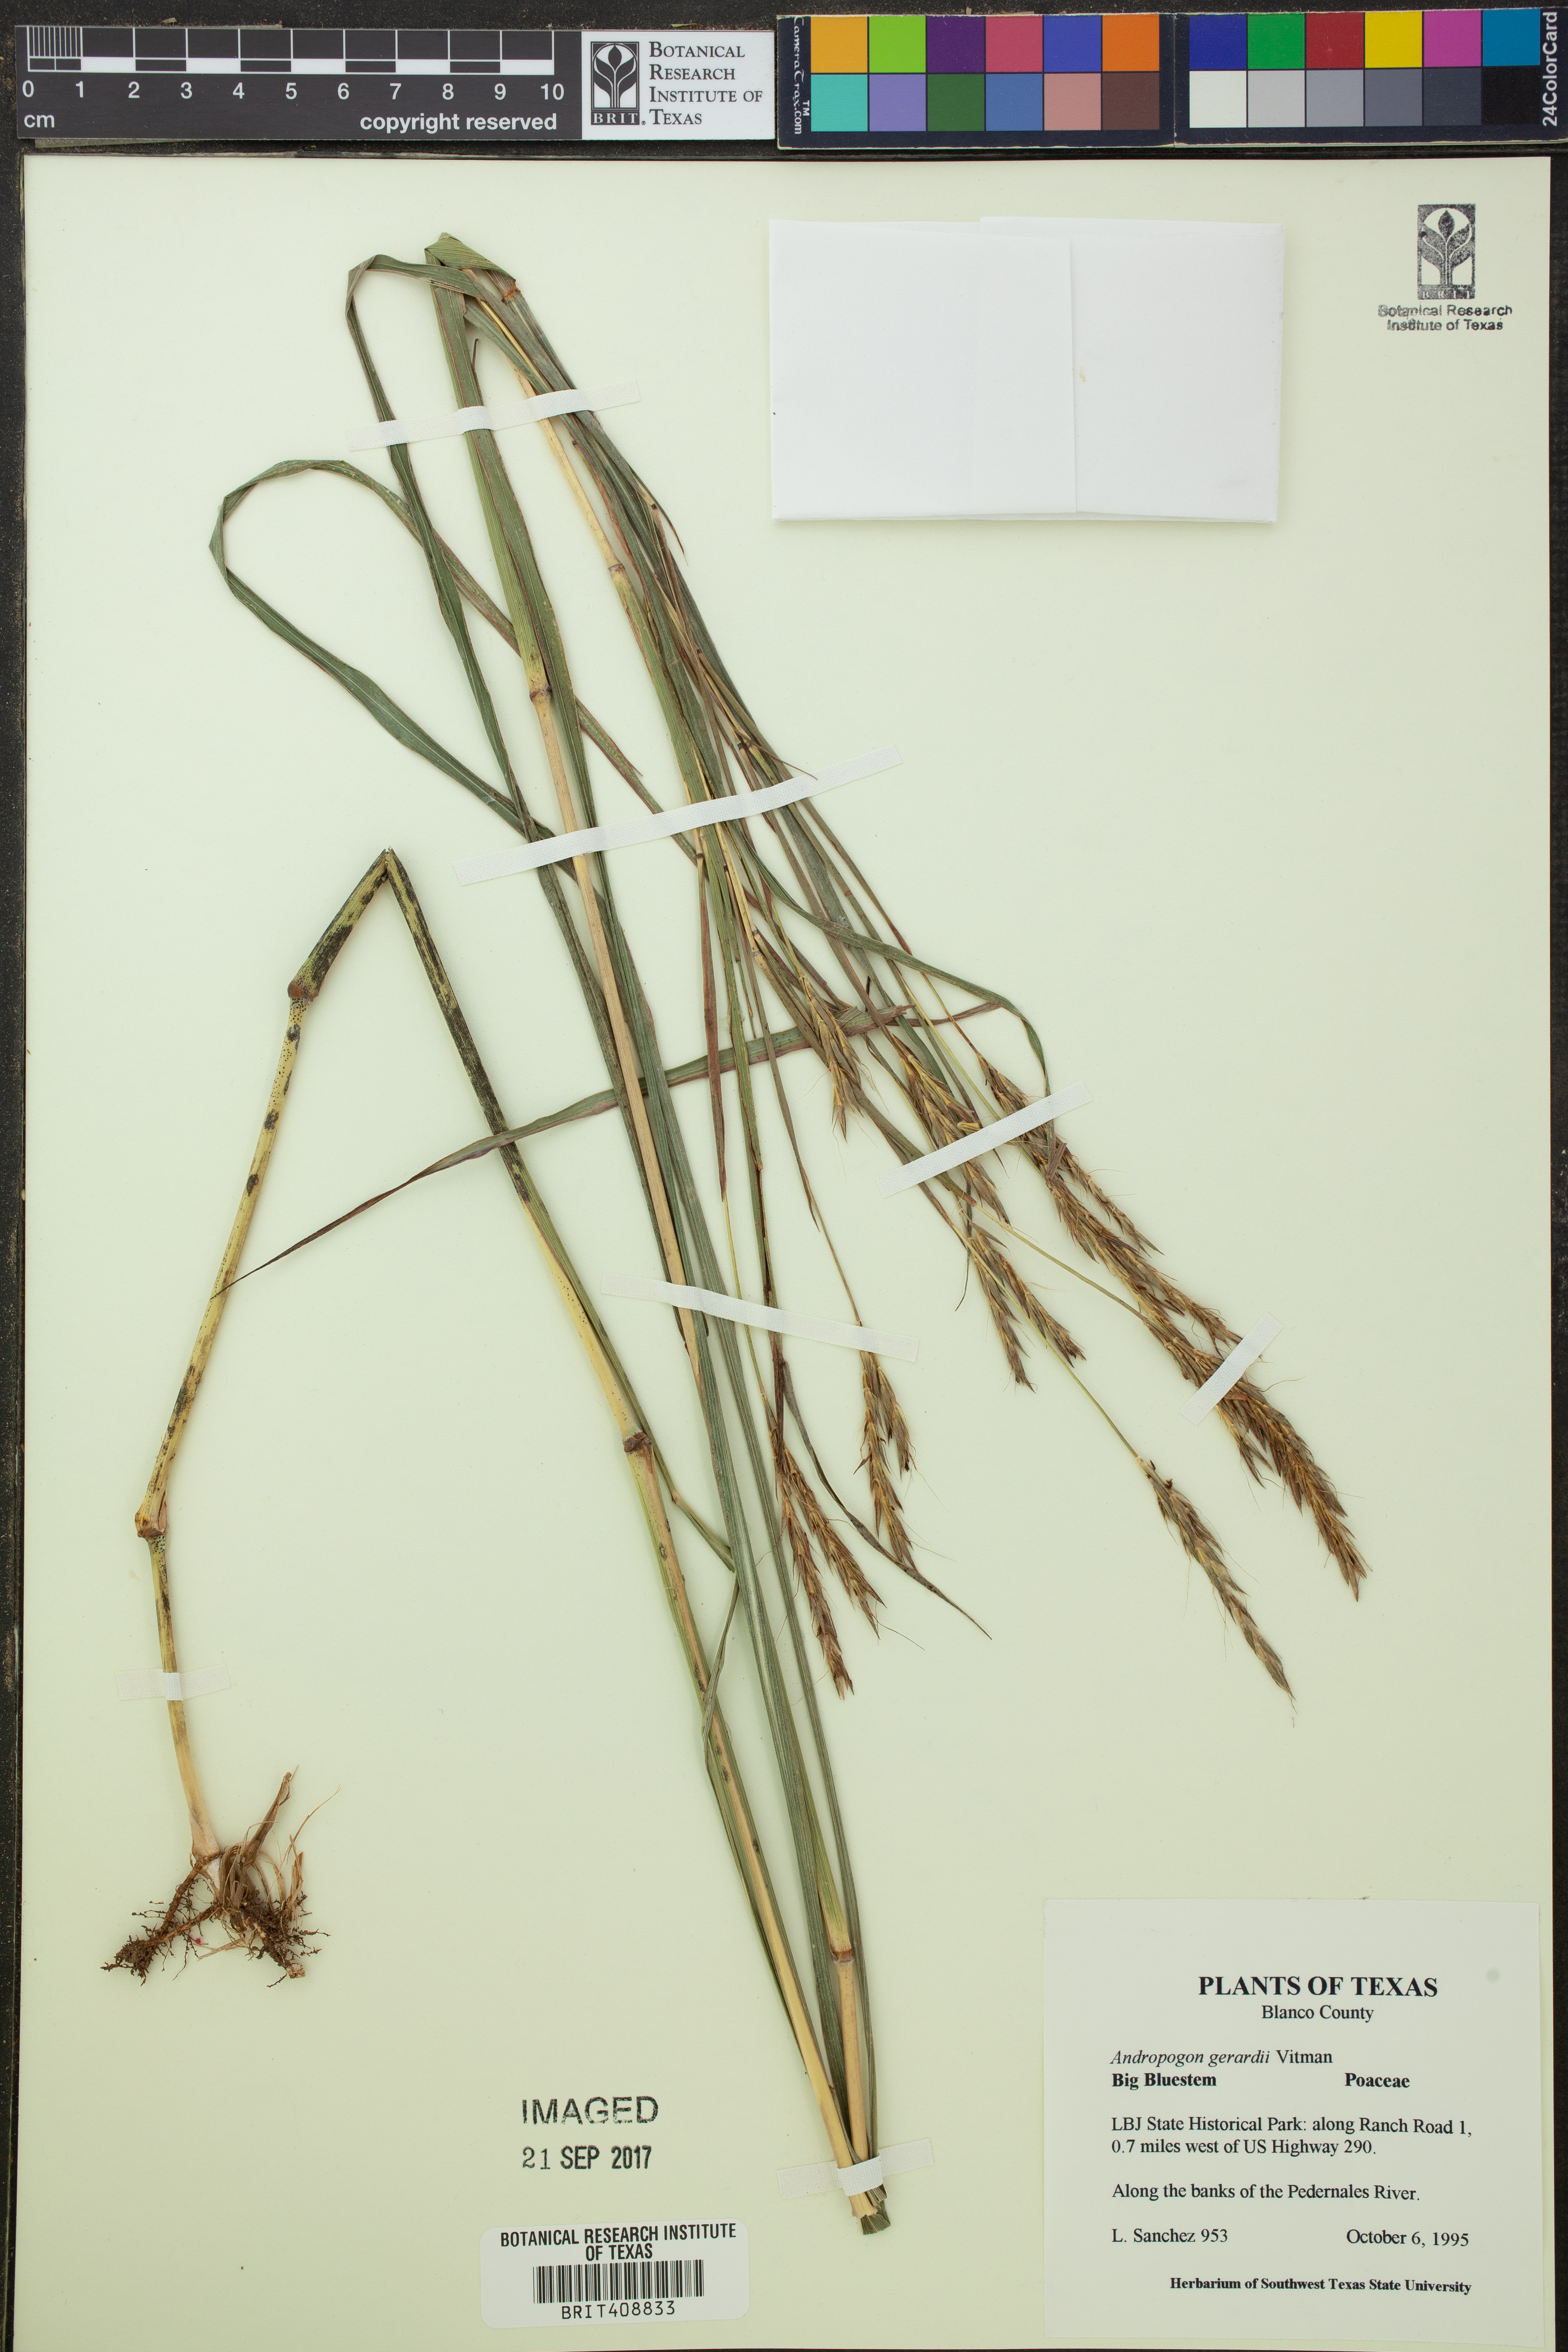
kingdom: Plantae
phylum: Tracheophyta
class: Liliopsida
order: Poales
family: Poaceae
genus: Andropogon
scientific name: Andropogon gerardi
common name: Big bluestem
